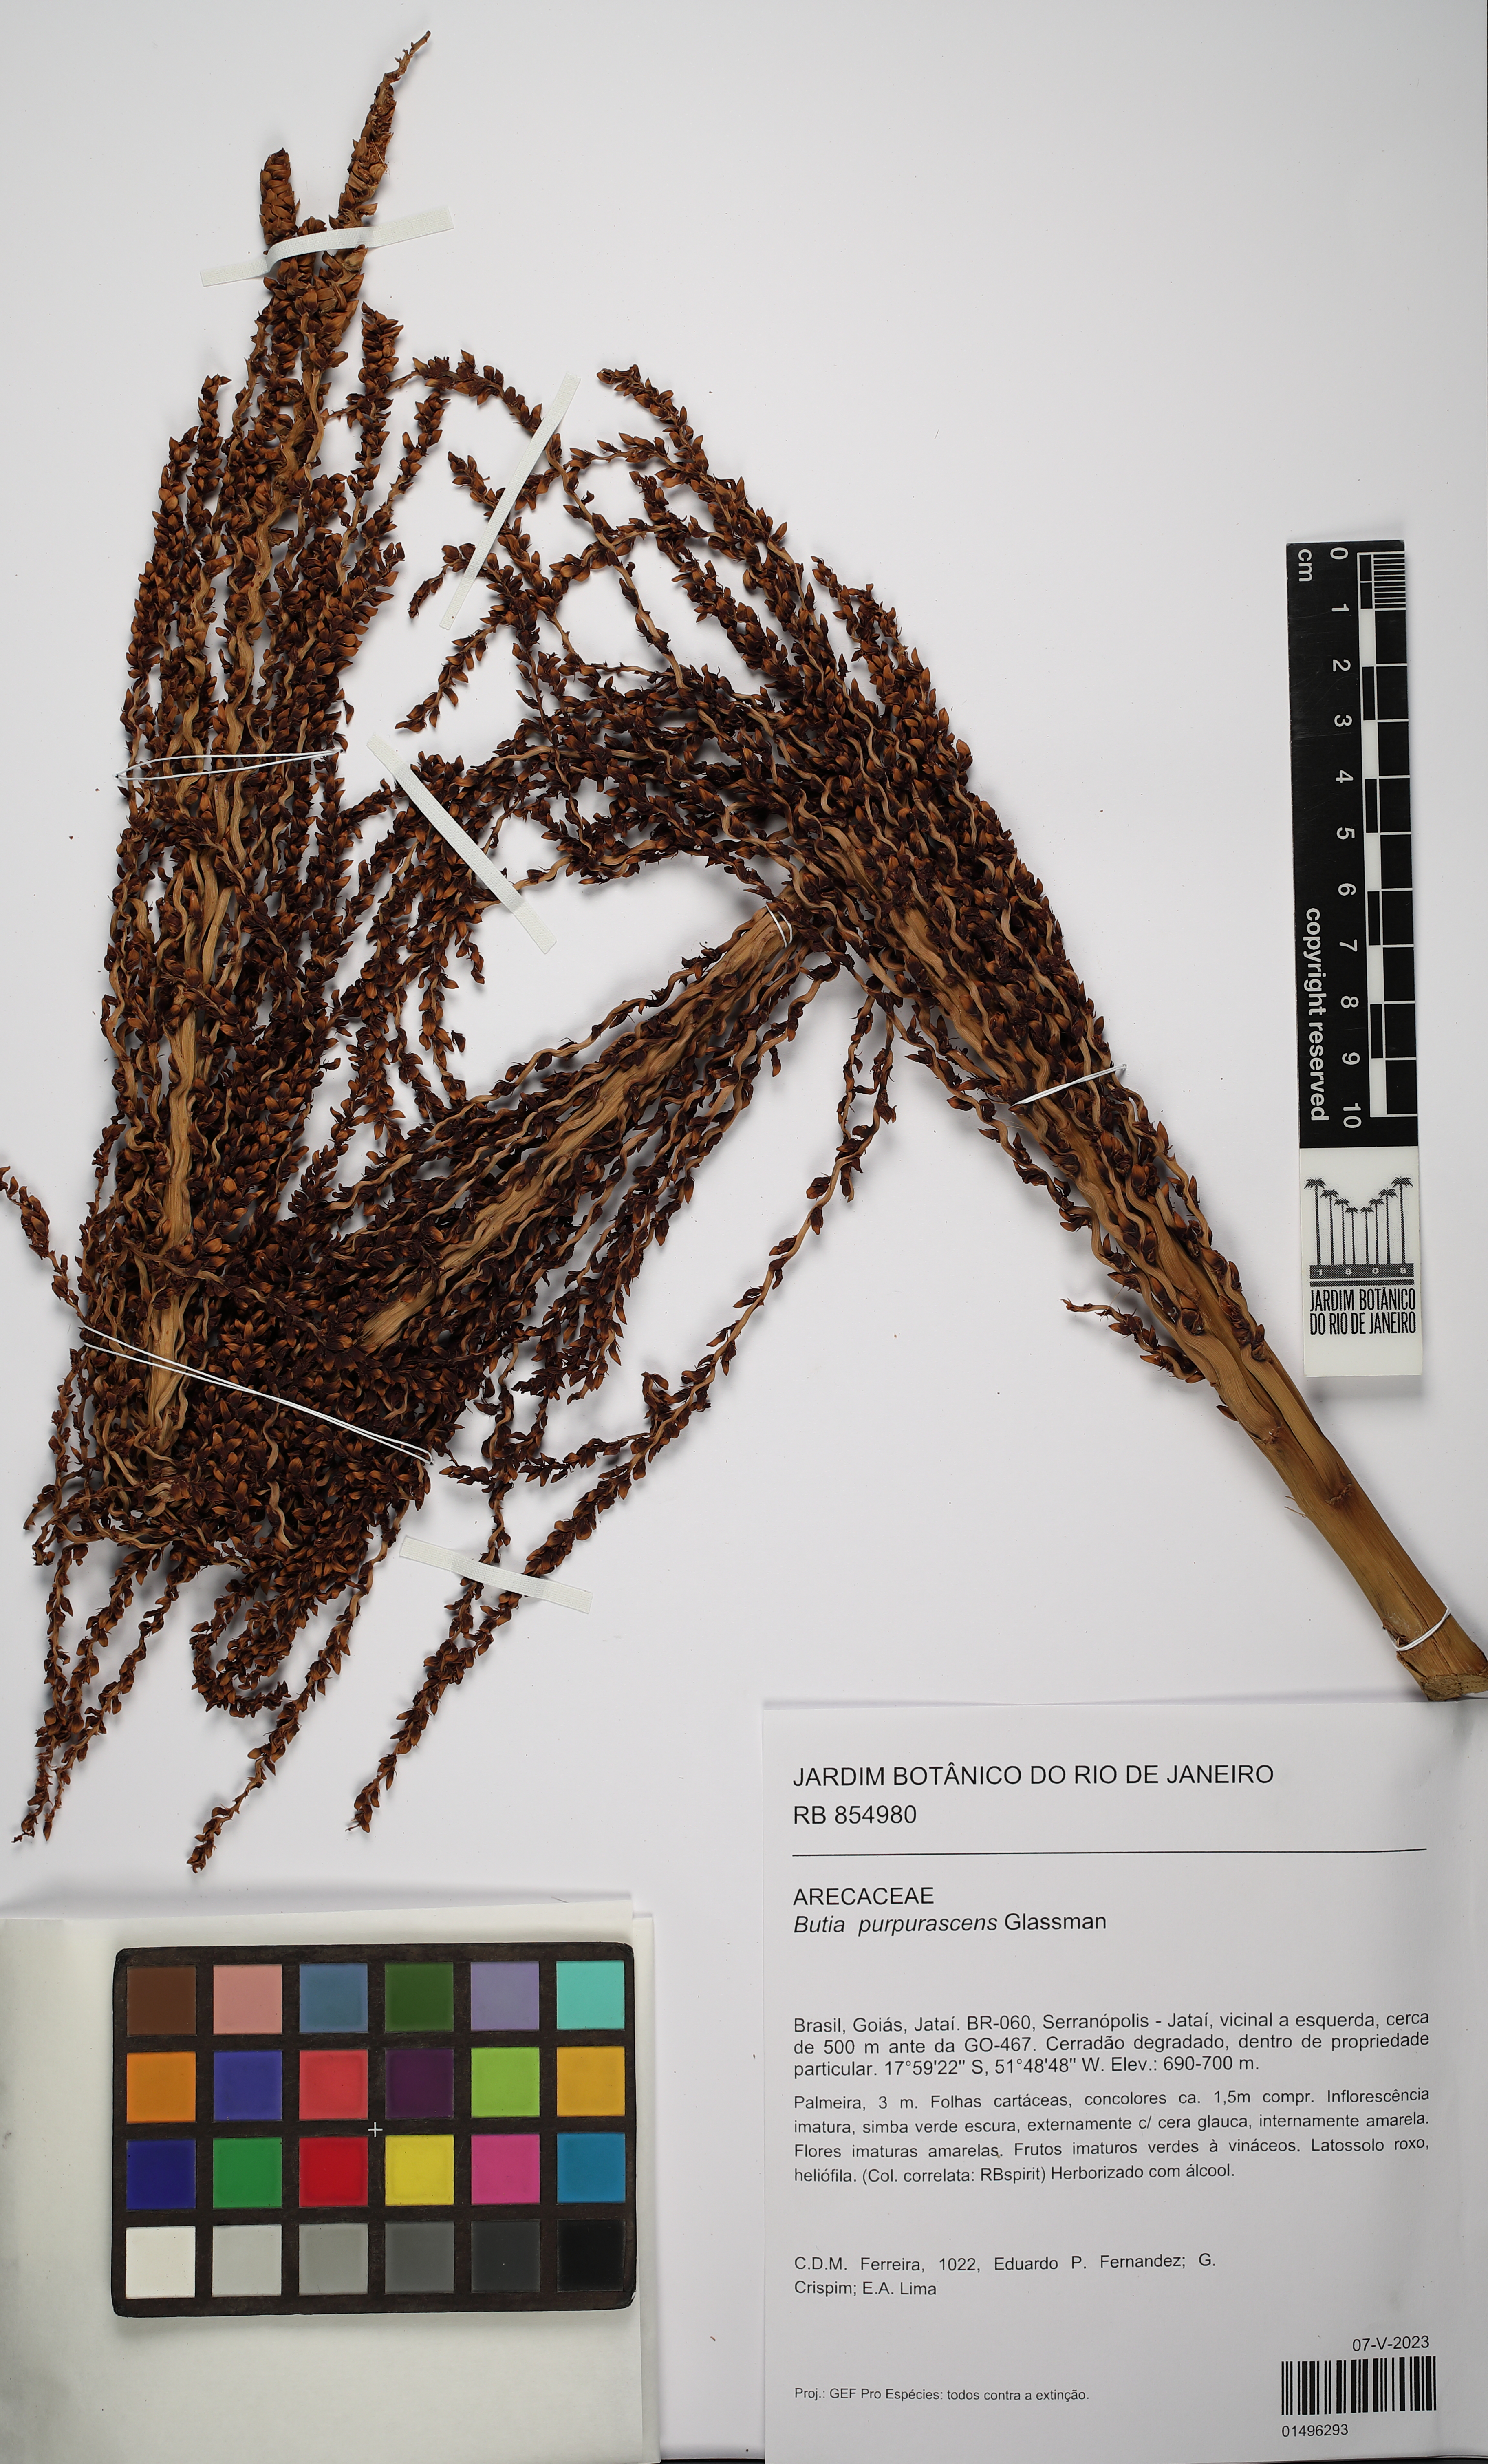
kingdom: Plantae
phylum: Tracheophyta
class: Liliopsida
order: Arecales
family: Arecaceae
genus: Butia
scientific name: Butia purpurascens
